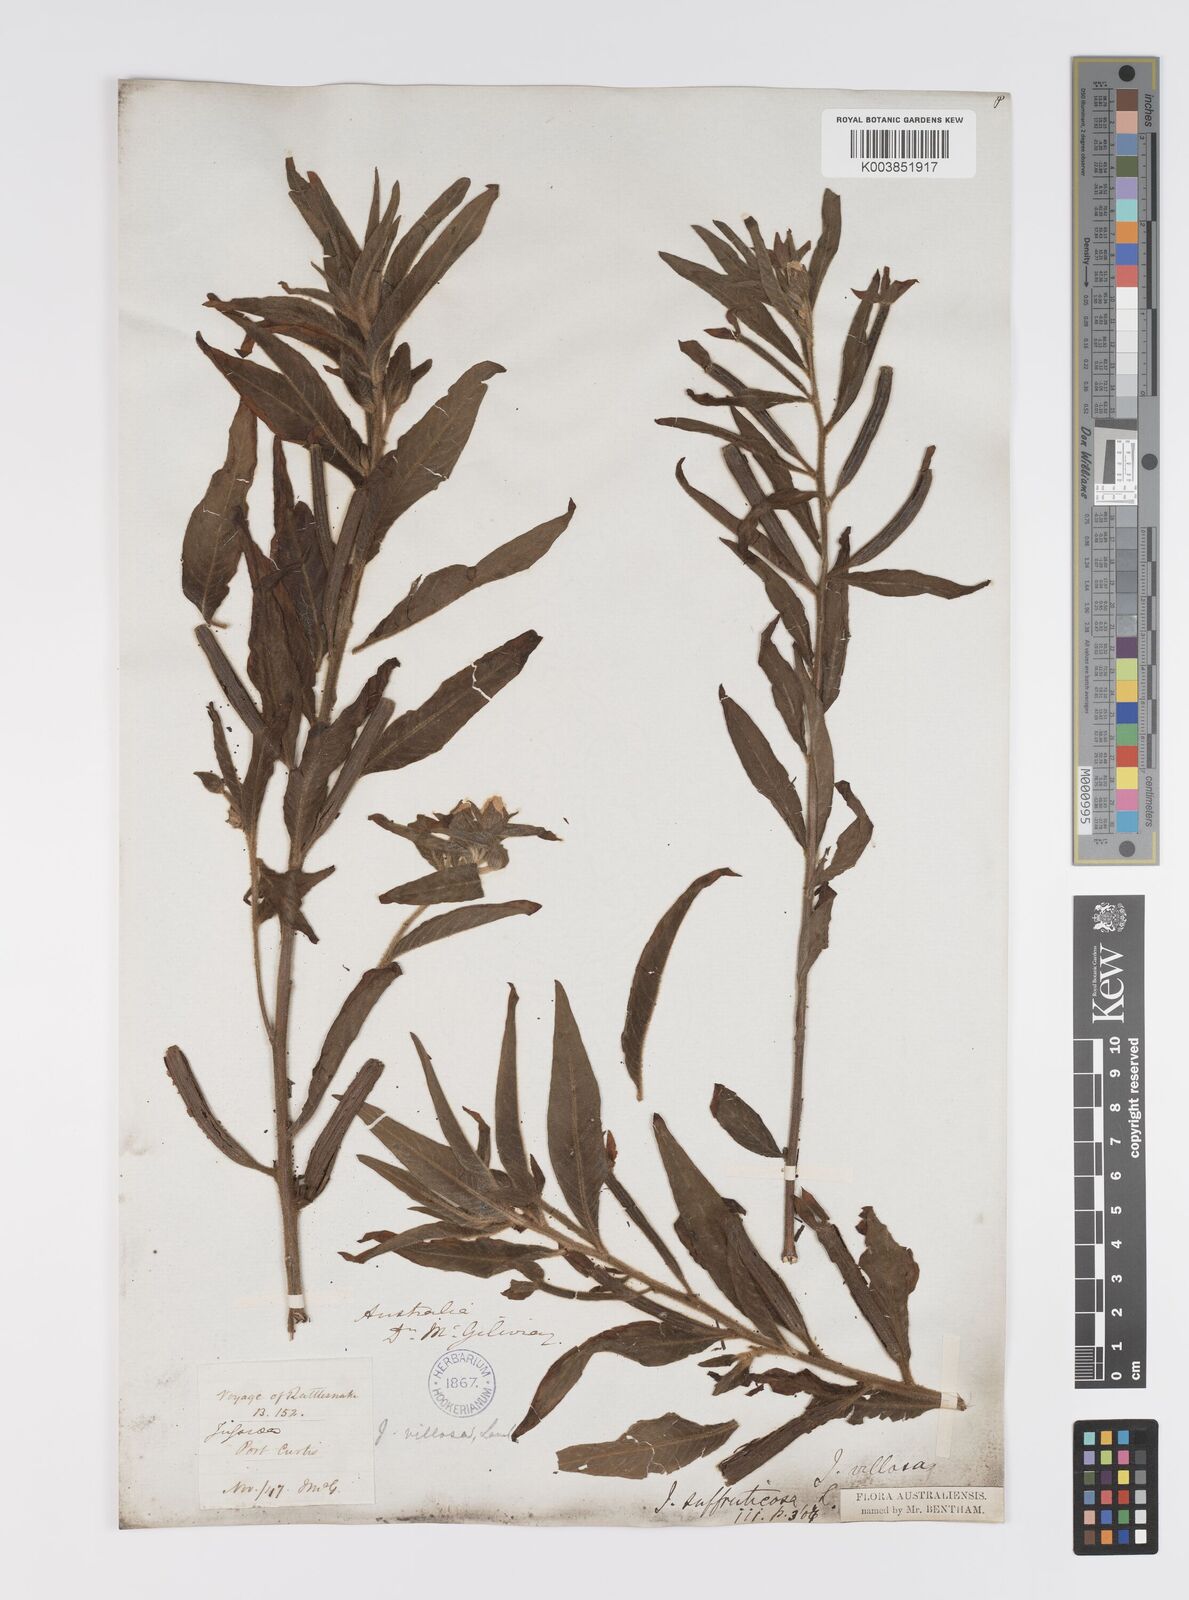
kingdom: Plantae
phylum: Tracheophyta
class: Magnoliopsida
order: Myrtales
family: Onagraceae
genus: Ludwigia
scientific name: Ludwigia octovalvis
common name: Water-primrose
